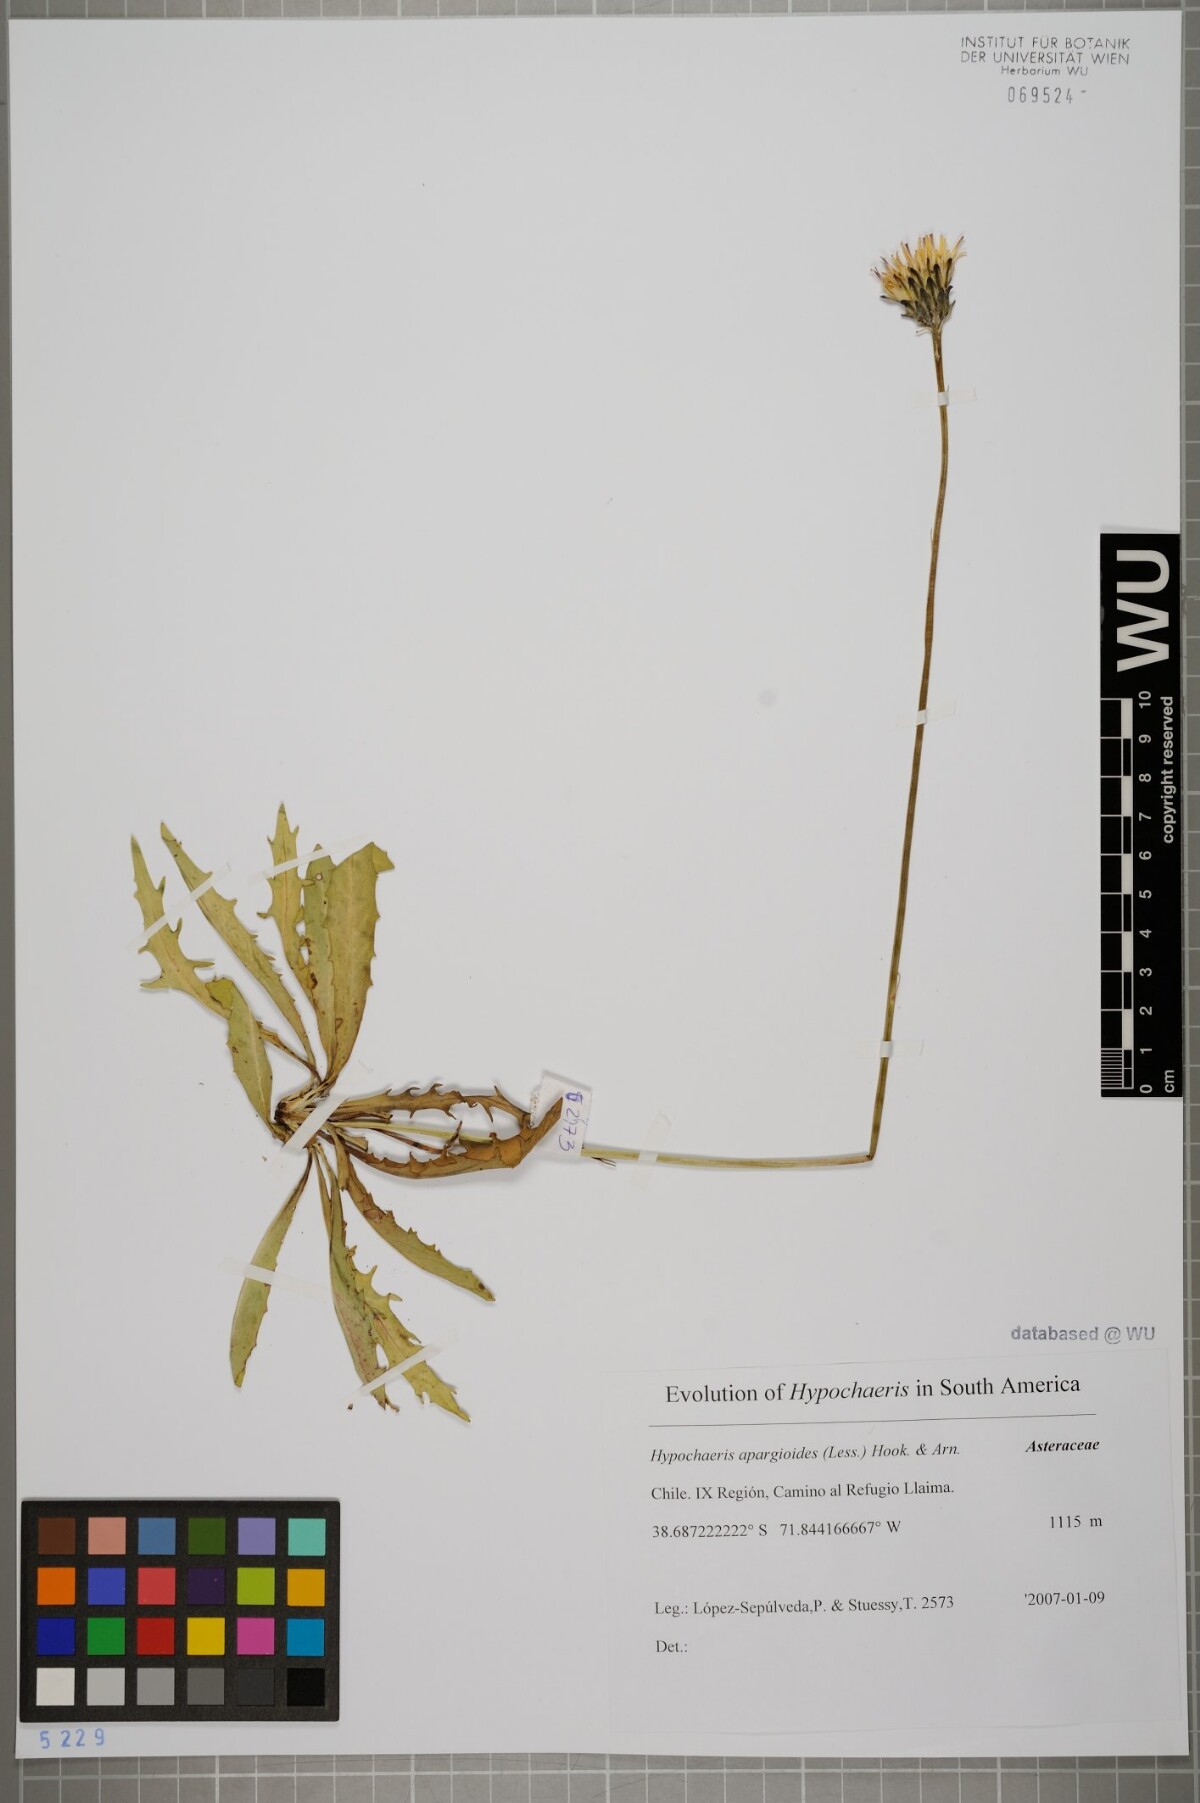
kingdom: Plantae
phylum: Tracheophyta
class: Magnoliopsida
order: Asterales
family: Asteraceae
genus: Hypochaeris
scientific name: Hypochaeris apargioides
